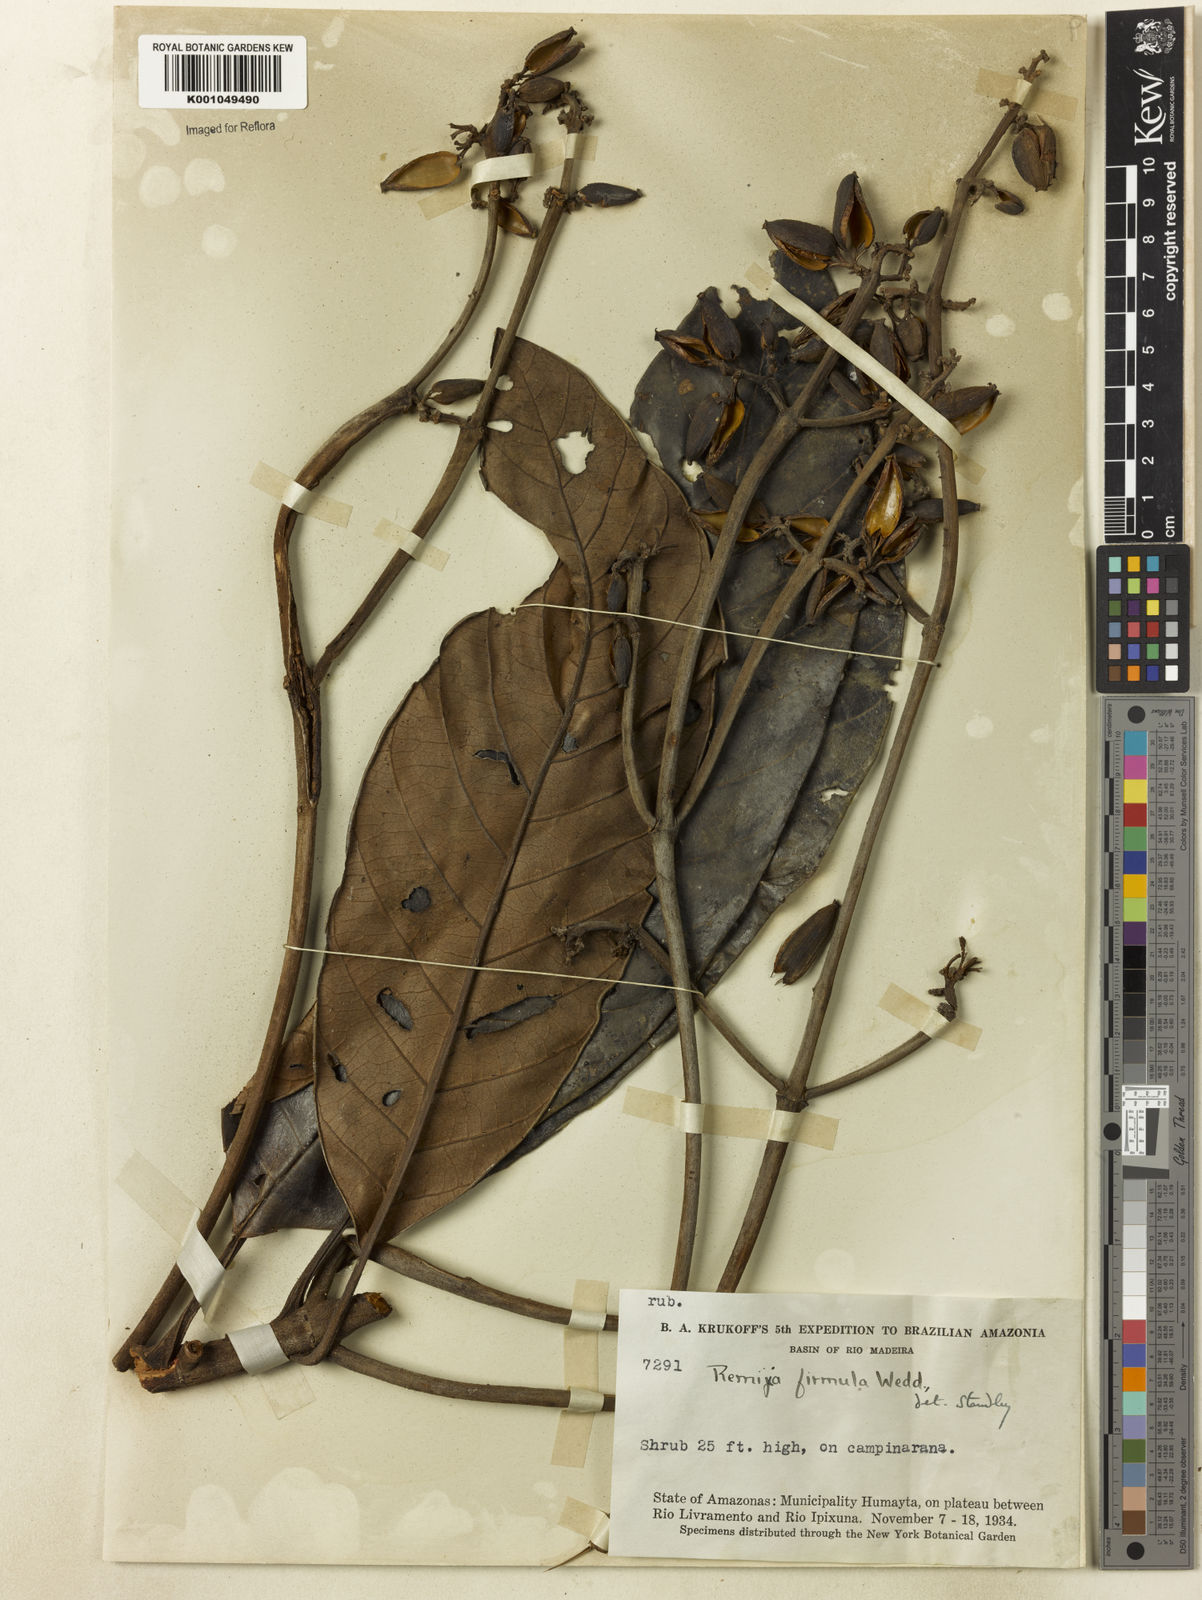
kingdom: Plantae
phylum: Tracheophyta
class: Magnoliopsida
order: Gentianales
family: Rubiaceae
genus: Remijia
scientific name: Remijia firmula
